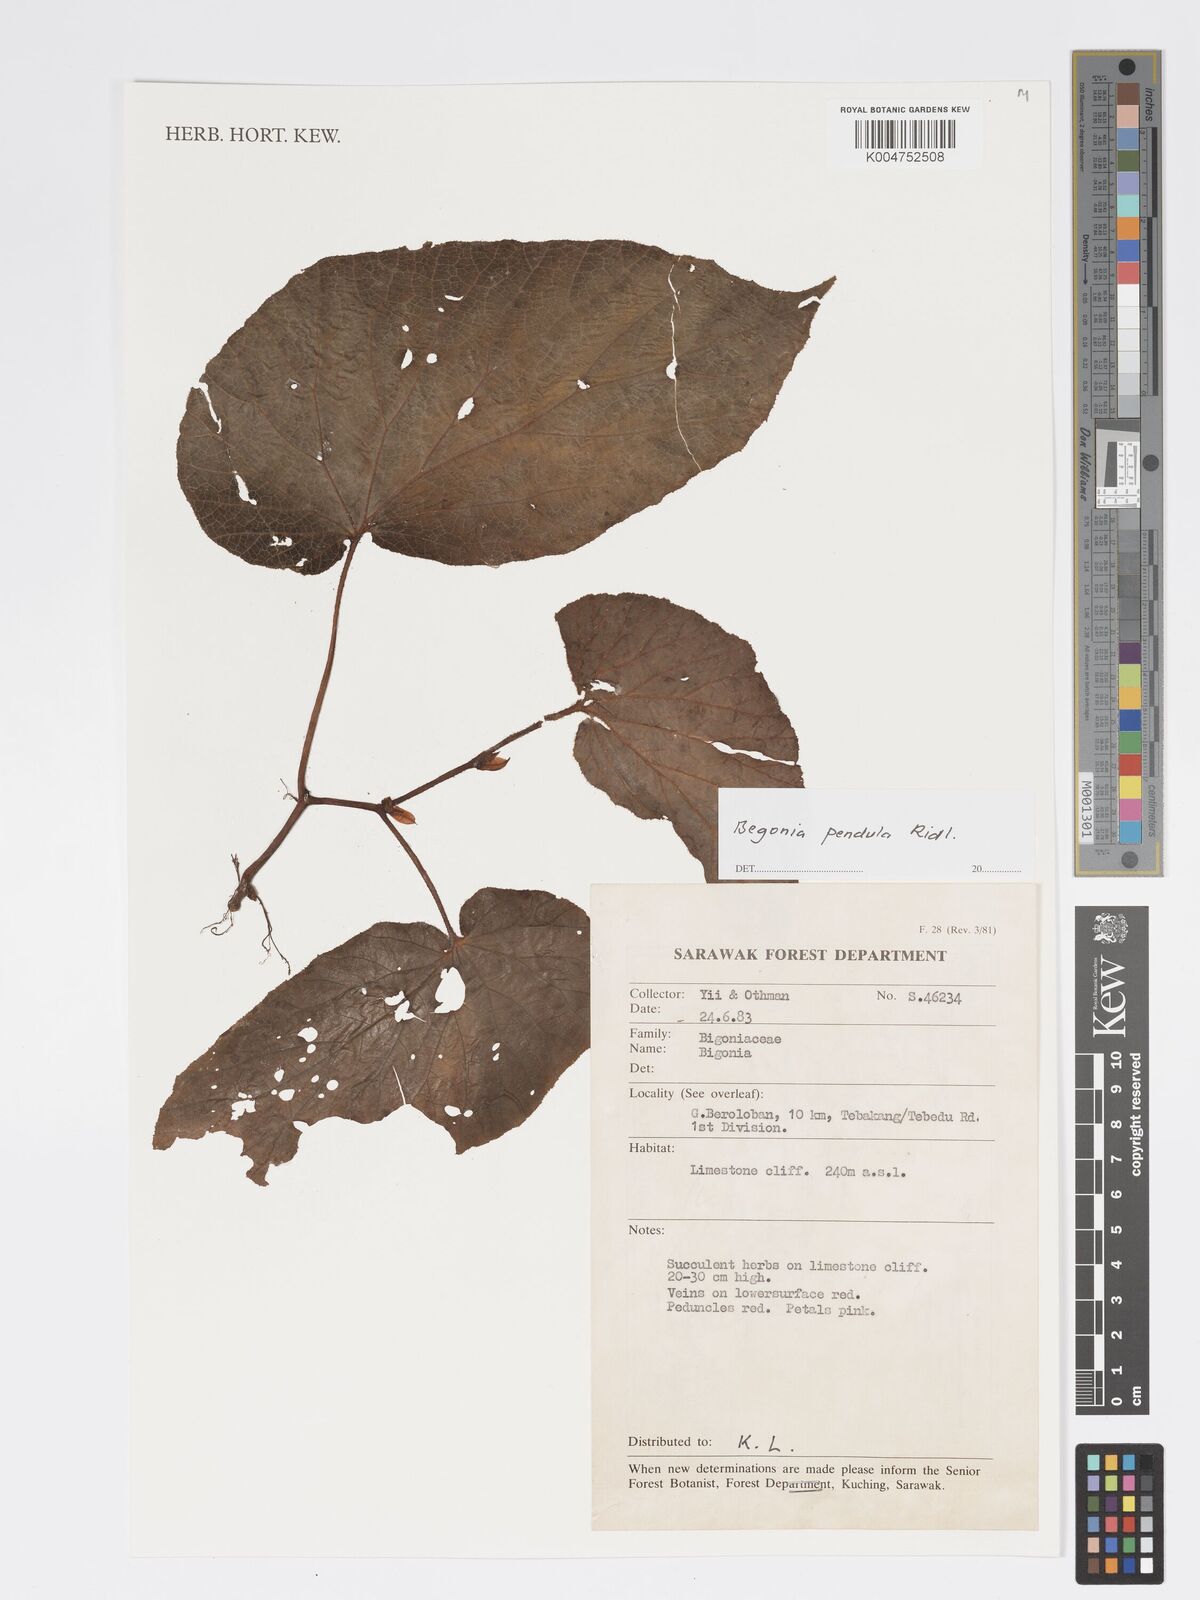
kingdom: Plantae
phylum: Tracheophyta
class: Magnoliopsida
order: Cucurbitales
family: Begoniaceae
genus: Begonia
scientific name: Begonia
